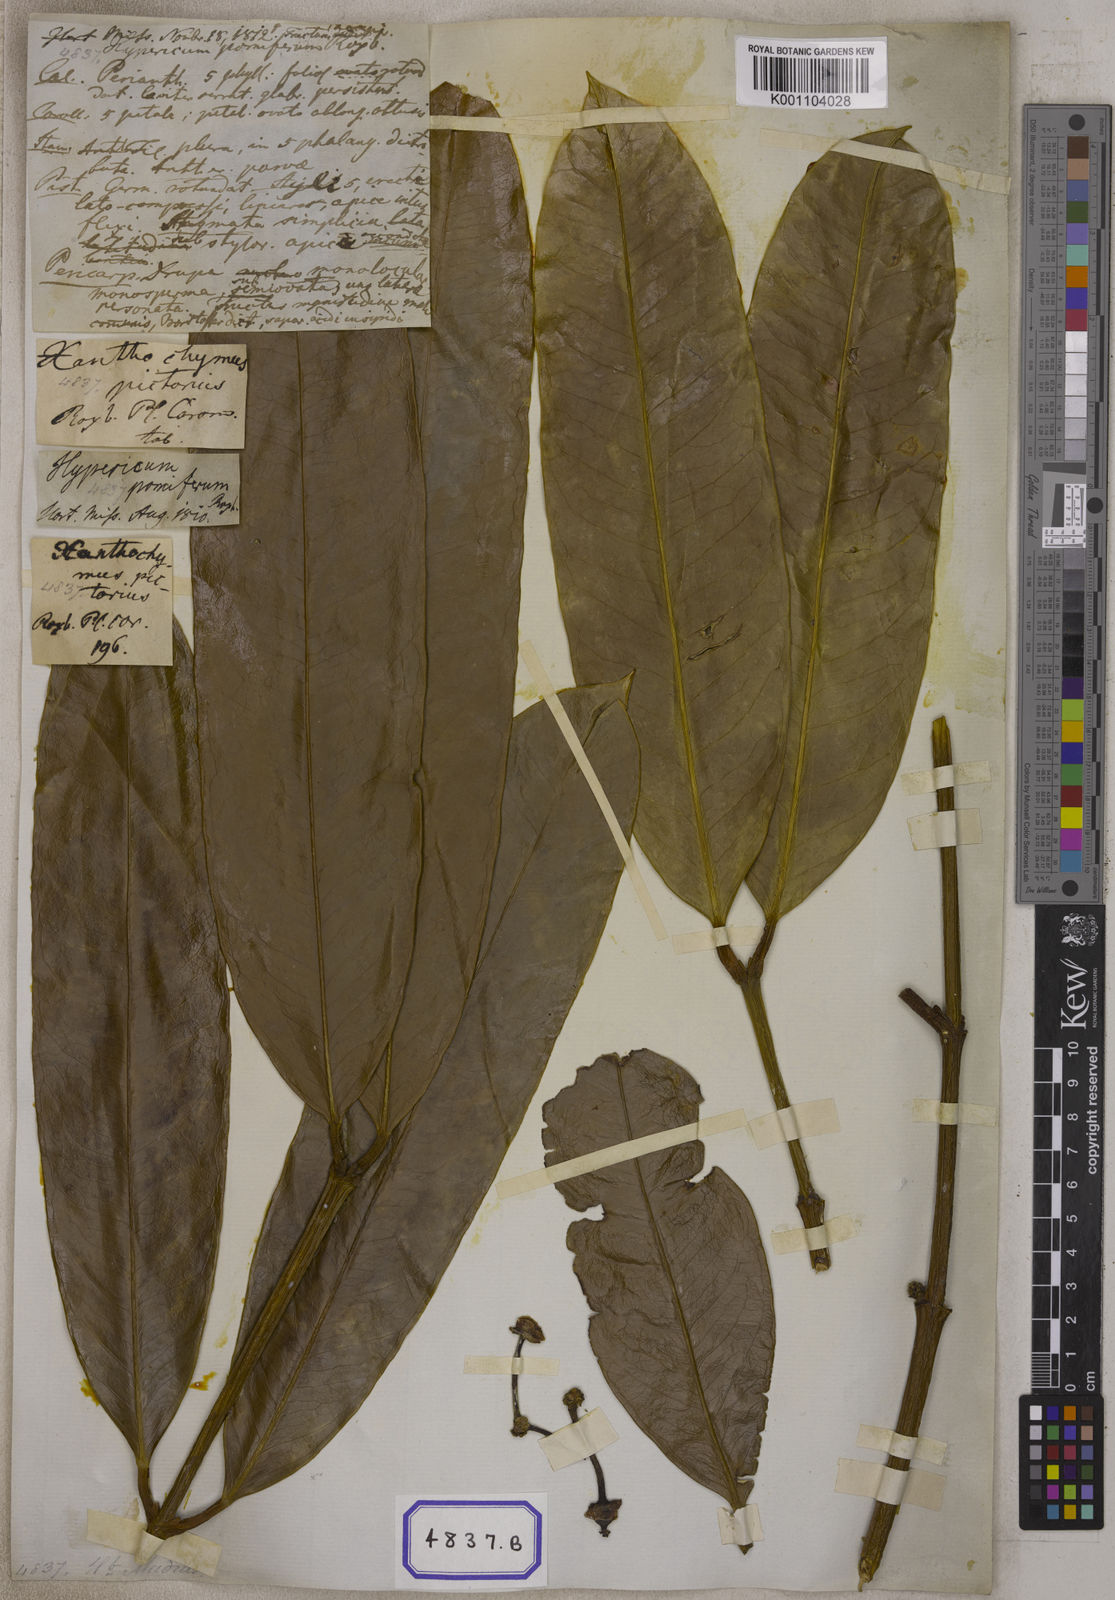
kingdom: Plantae
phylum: Tracheophyta
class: Magnoliopsida
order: Malpighiales
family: Clusiaceae
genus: Garcinia
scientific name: Garcinia xanthochymus
